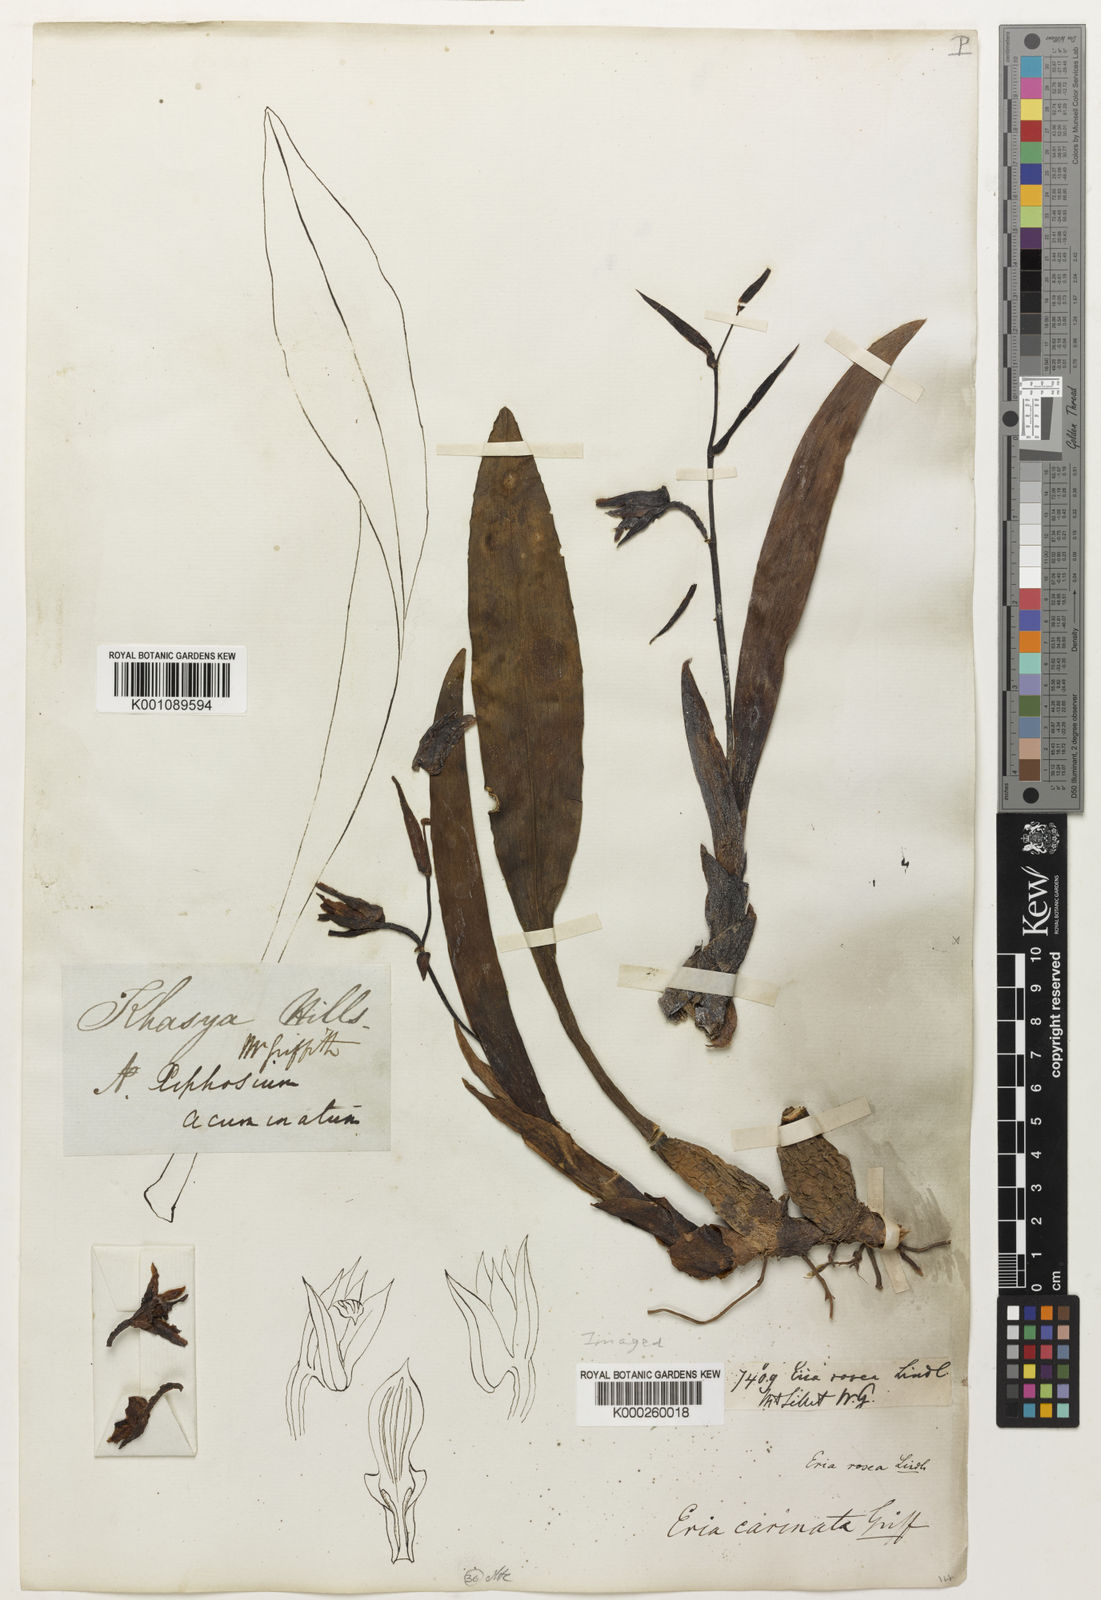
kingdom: Plantae
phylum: Tracheophyta
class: Liliopsida
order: Asparagales
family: Orchidaceae
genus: Eria
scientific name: Eria
